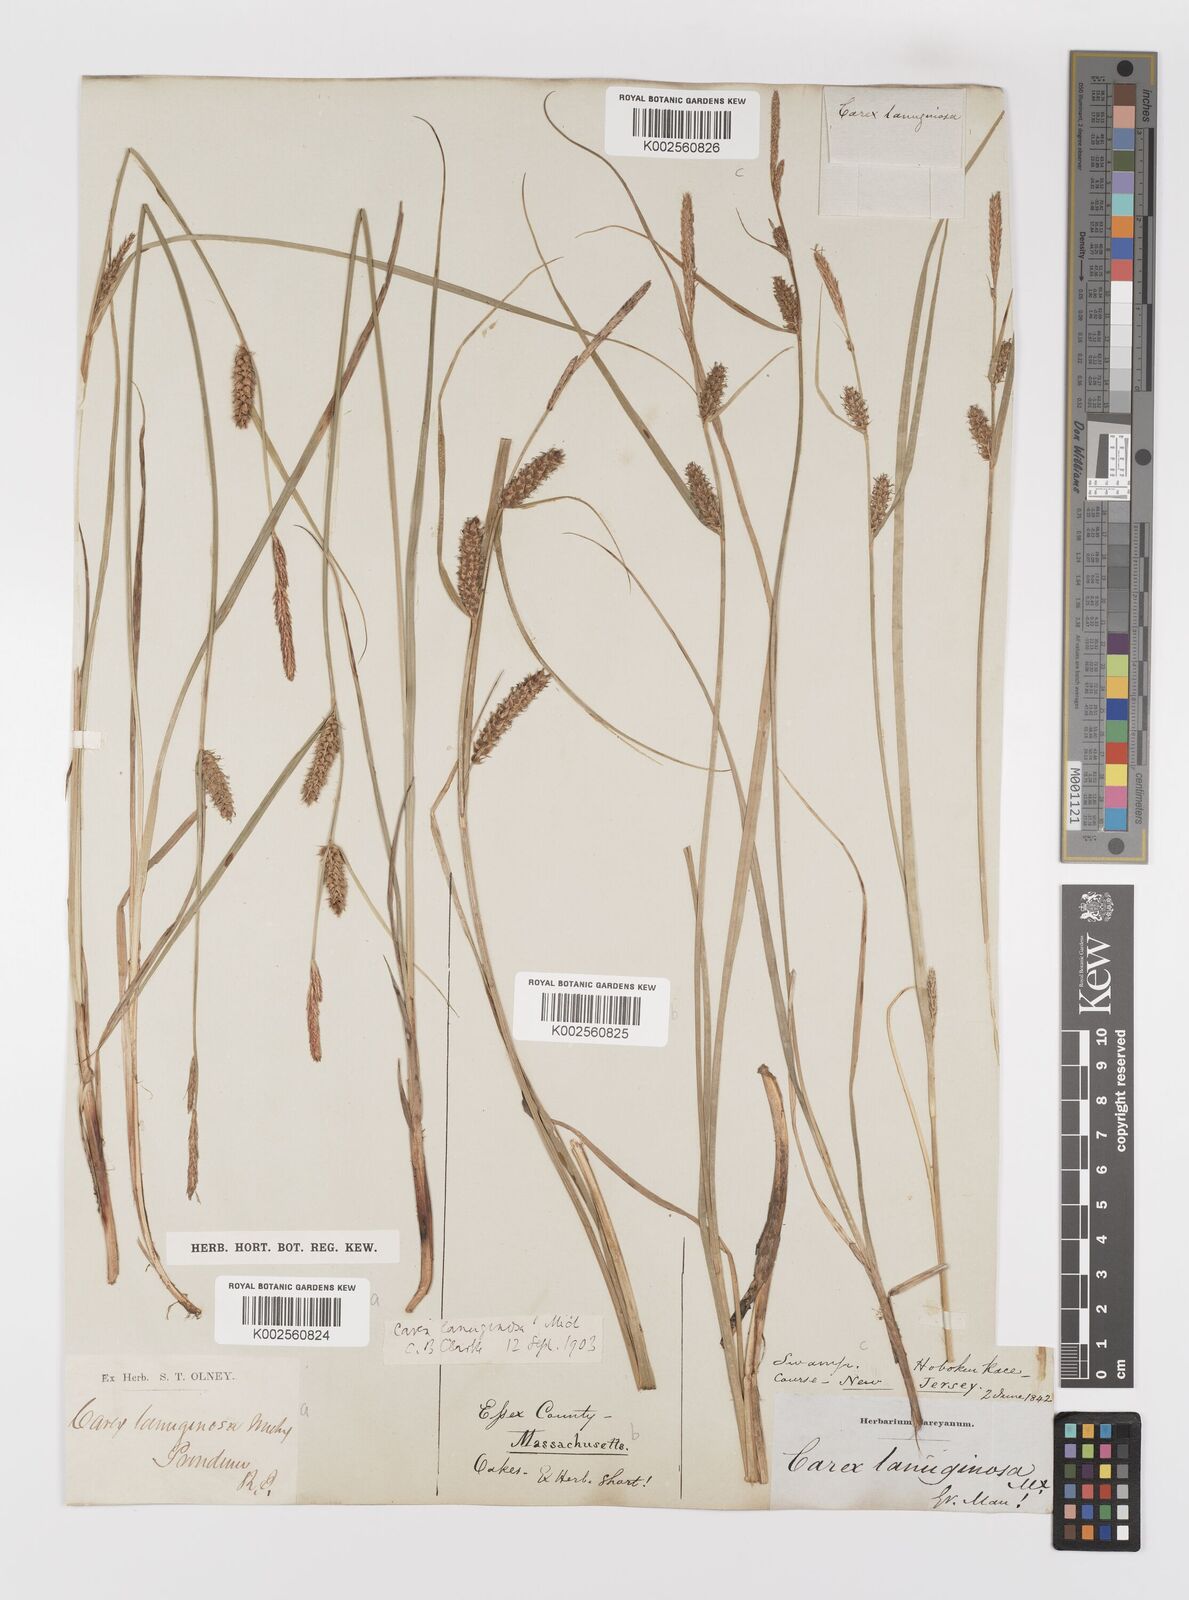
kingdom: Plantae
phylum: Tracheophyta
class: Liliopsida
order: Poales
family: Cyperaceae
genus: Carex
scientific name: Carex lasiocarpa
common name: Slender sedge
